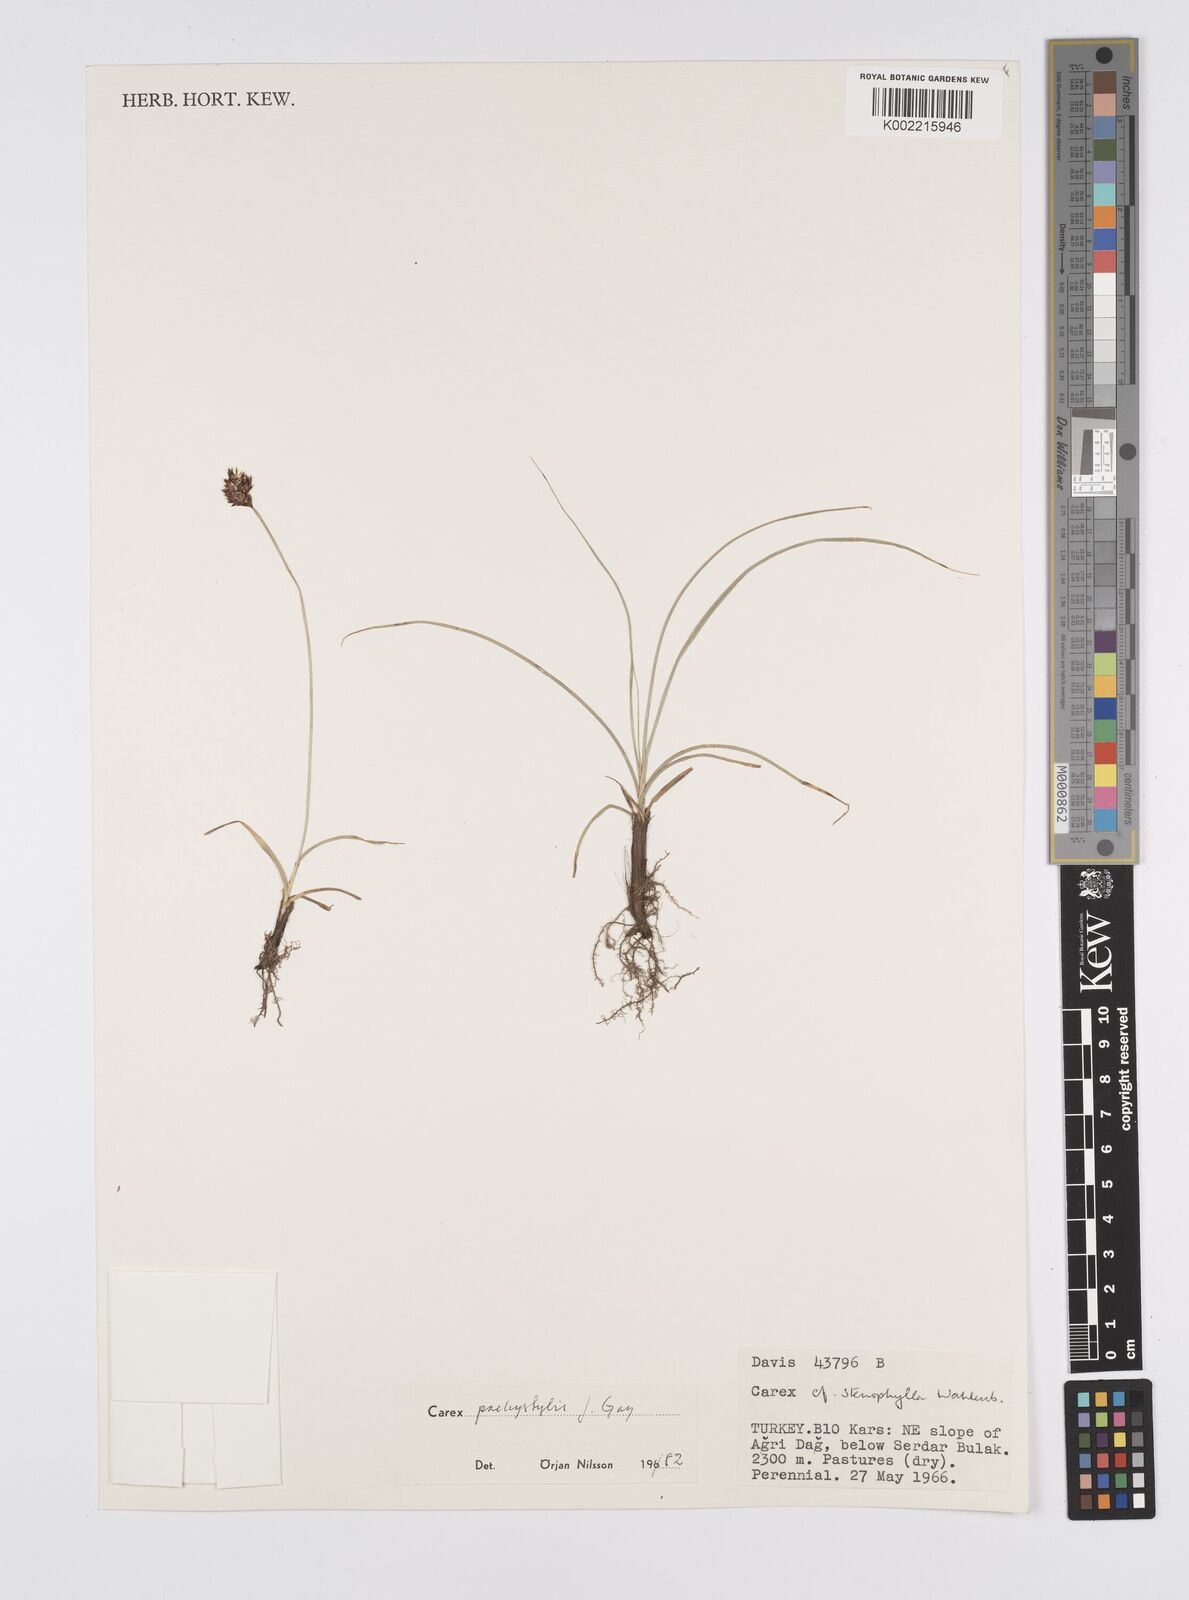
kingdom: Plantae
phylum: Tracheophyta
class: Liliopsida
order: Poales
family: Cyperaceae
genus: Carex
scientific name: Carex pachystylis
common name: Thick-stem sedge
